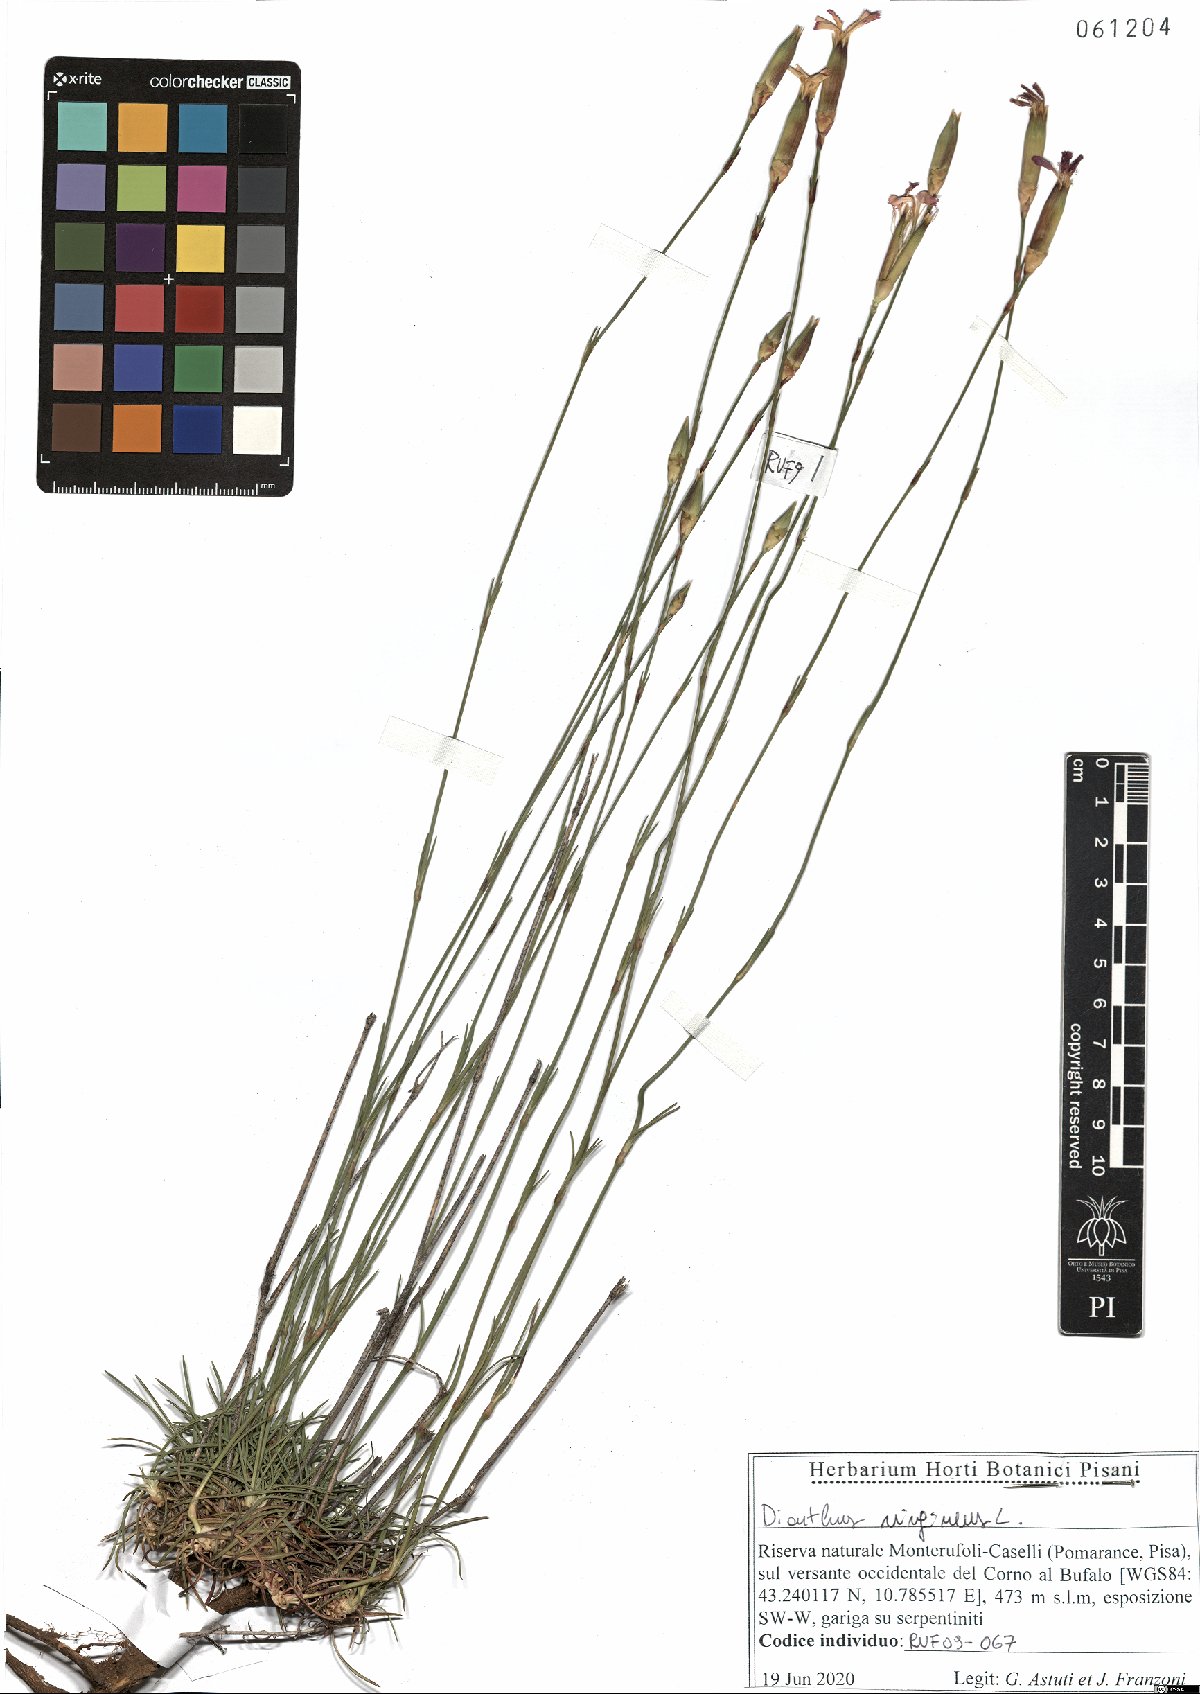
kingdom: Plantae
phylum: Tracheophyta
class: Magnoliopsida
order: Caryophyllales
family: Caryophyllaceae
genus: Dianthus
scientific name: Dianthus virgineus
